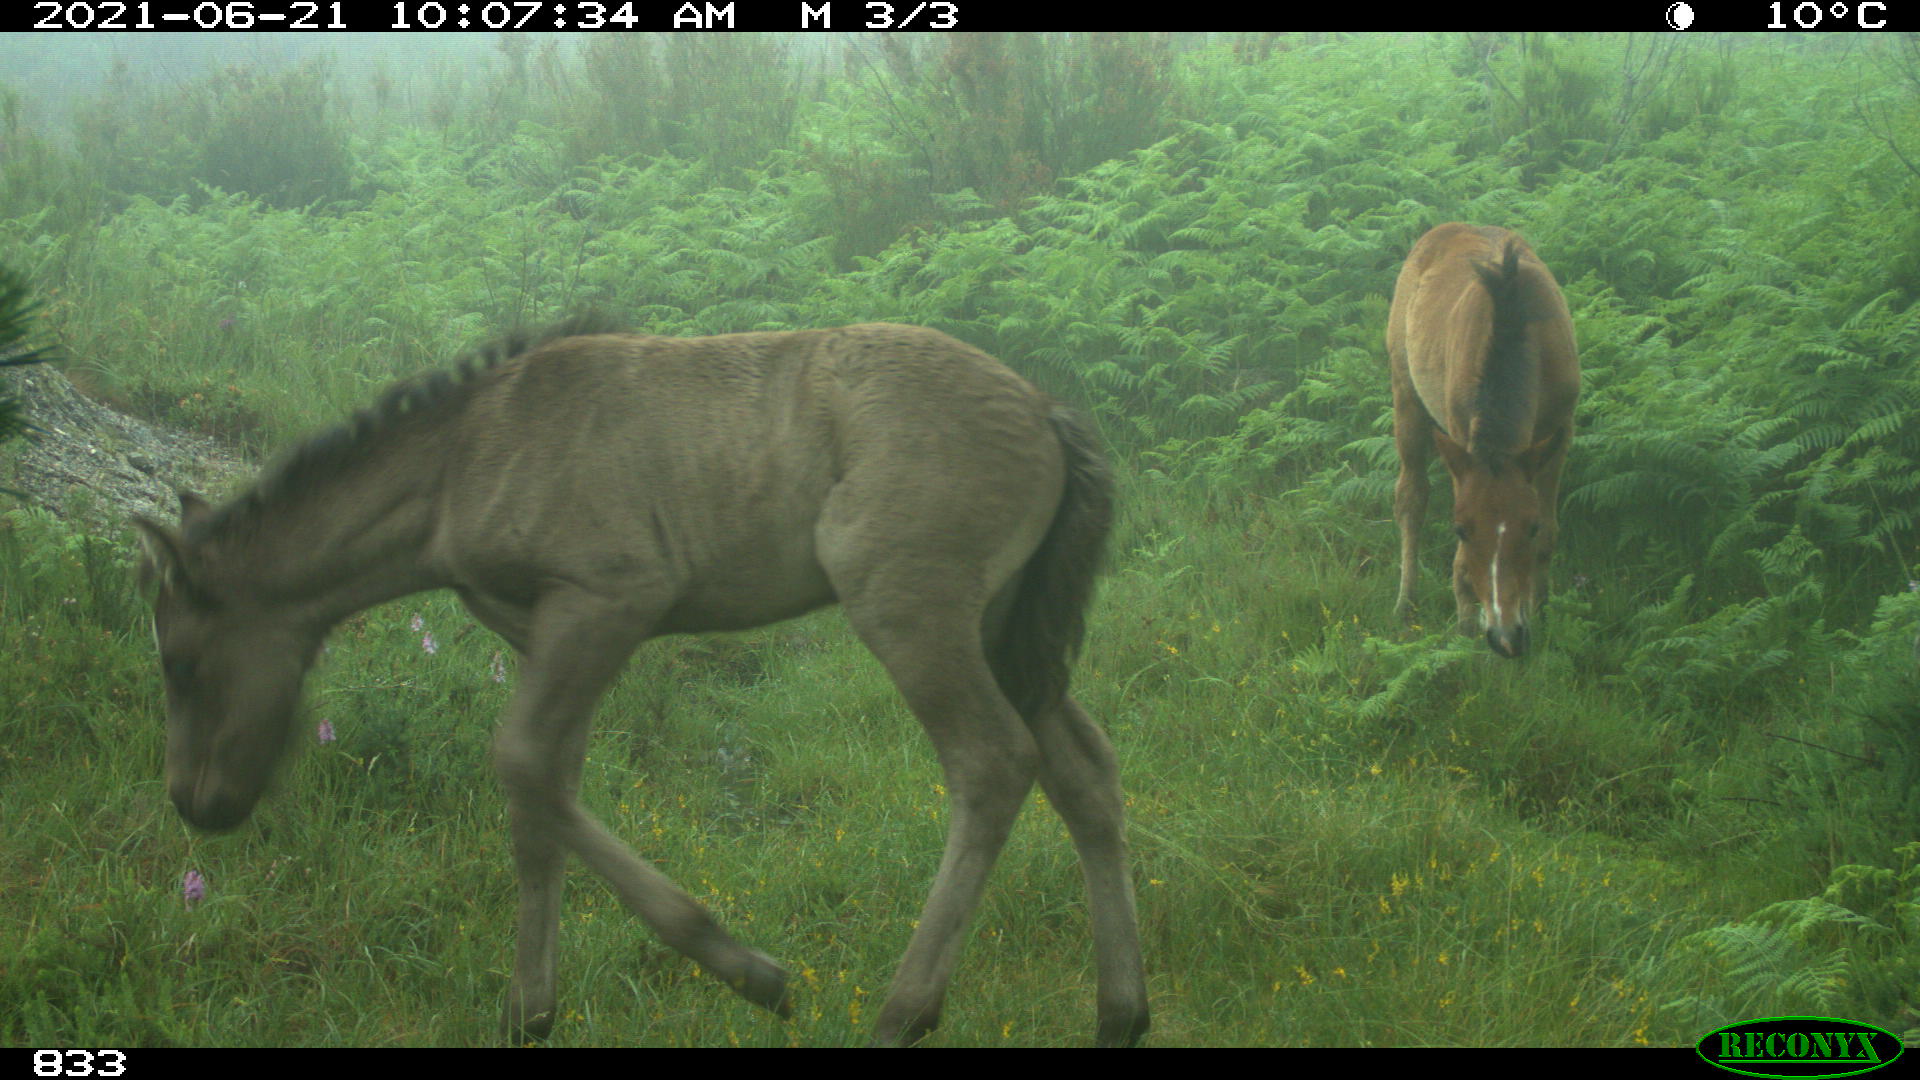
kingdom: Animalia
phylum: Chordata
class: Mammalia
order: Perissodactyla
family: Equidae
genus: Equus
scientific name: Equus caballus
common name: Horse
